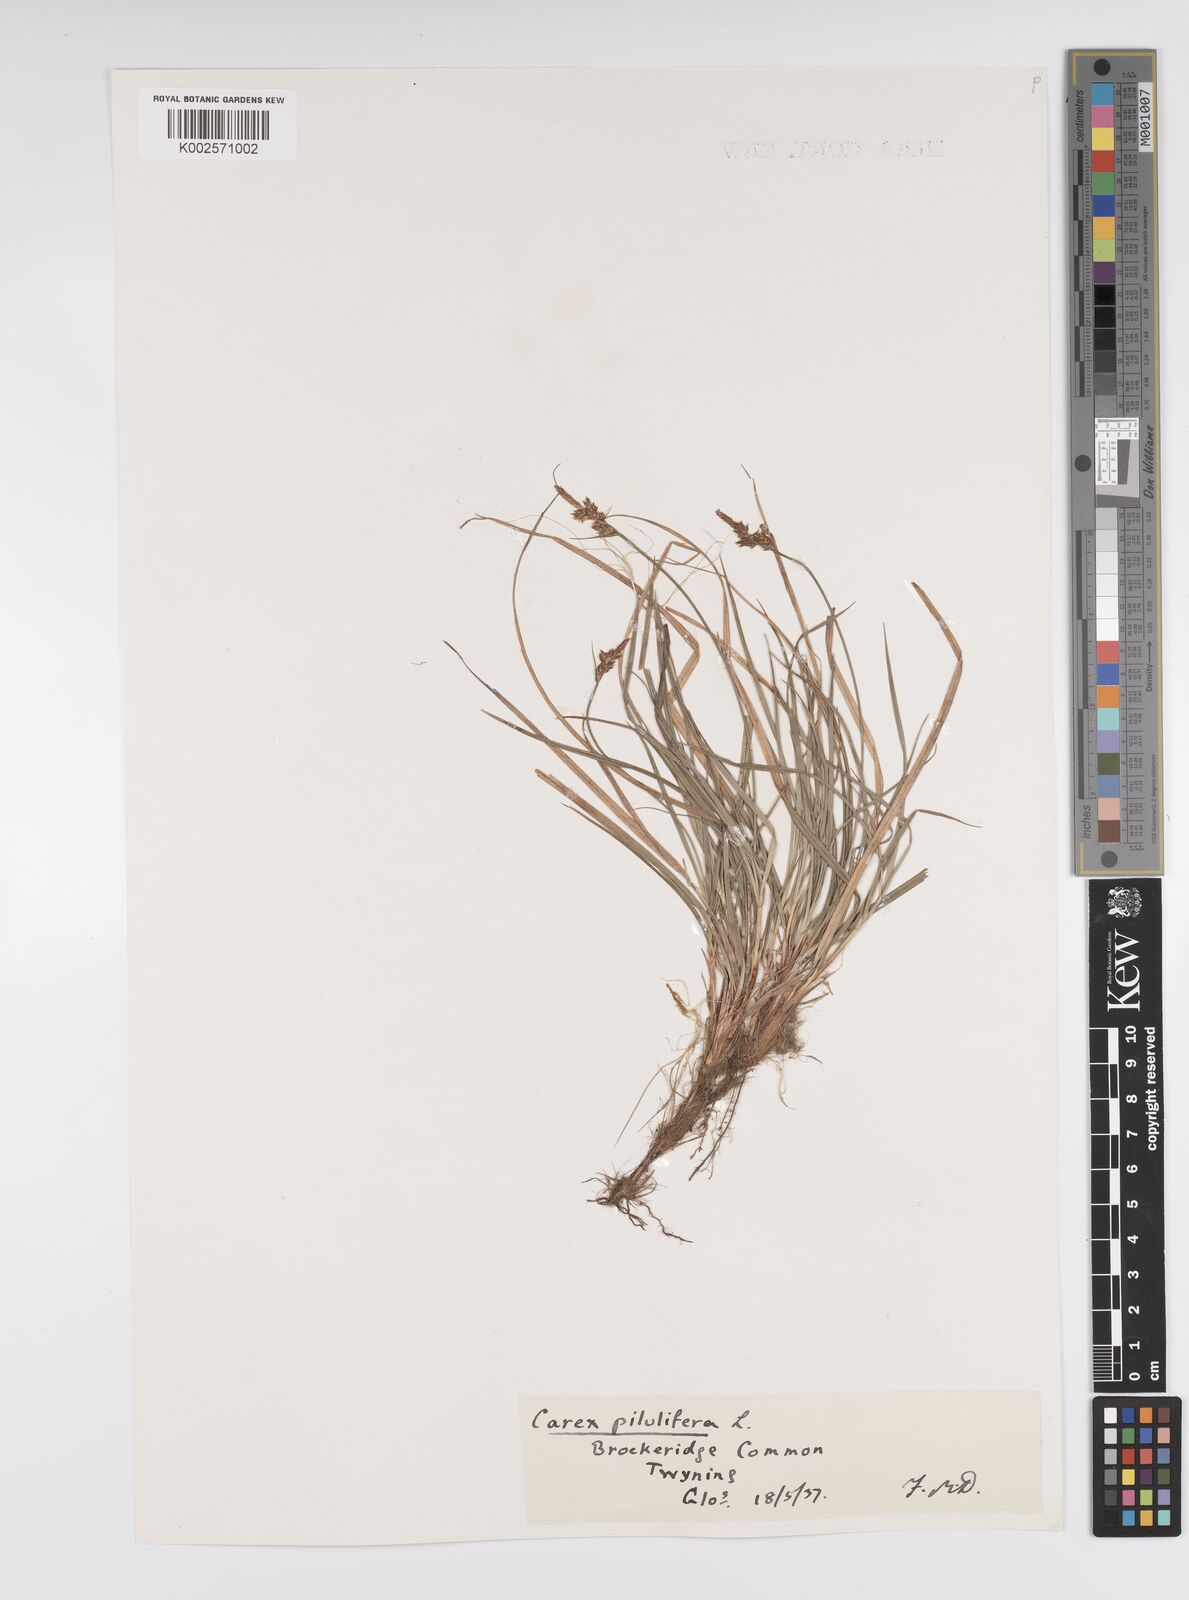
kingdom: Plantae
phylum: Tracheophyta
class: Liliopsida
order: Poales
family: Cyperaceae
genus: Carex
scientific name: Carex praecox
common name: Early sedge
